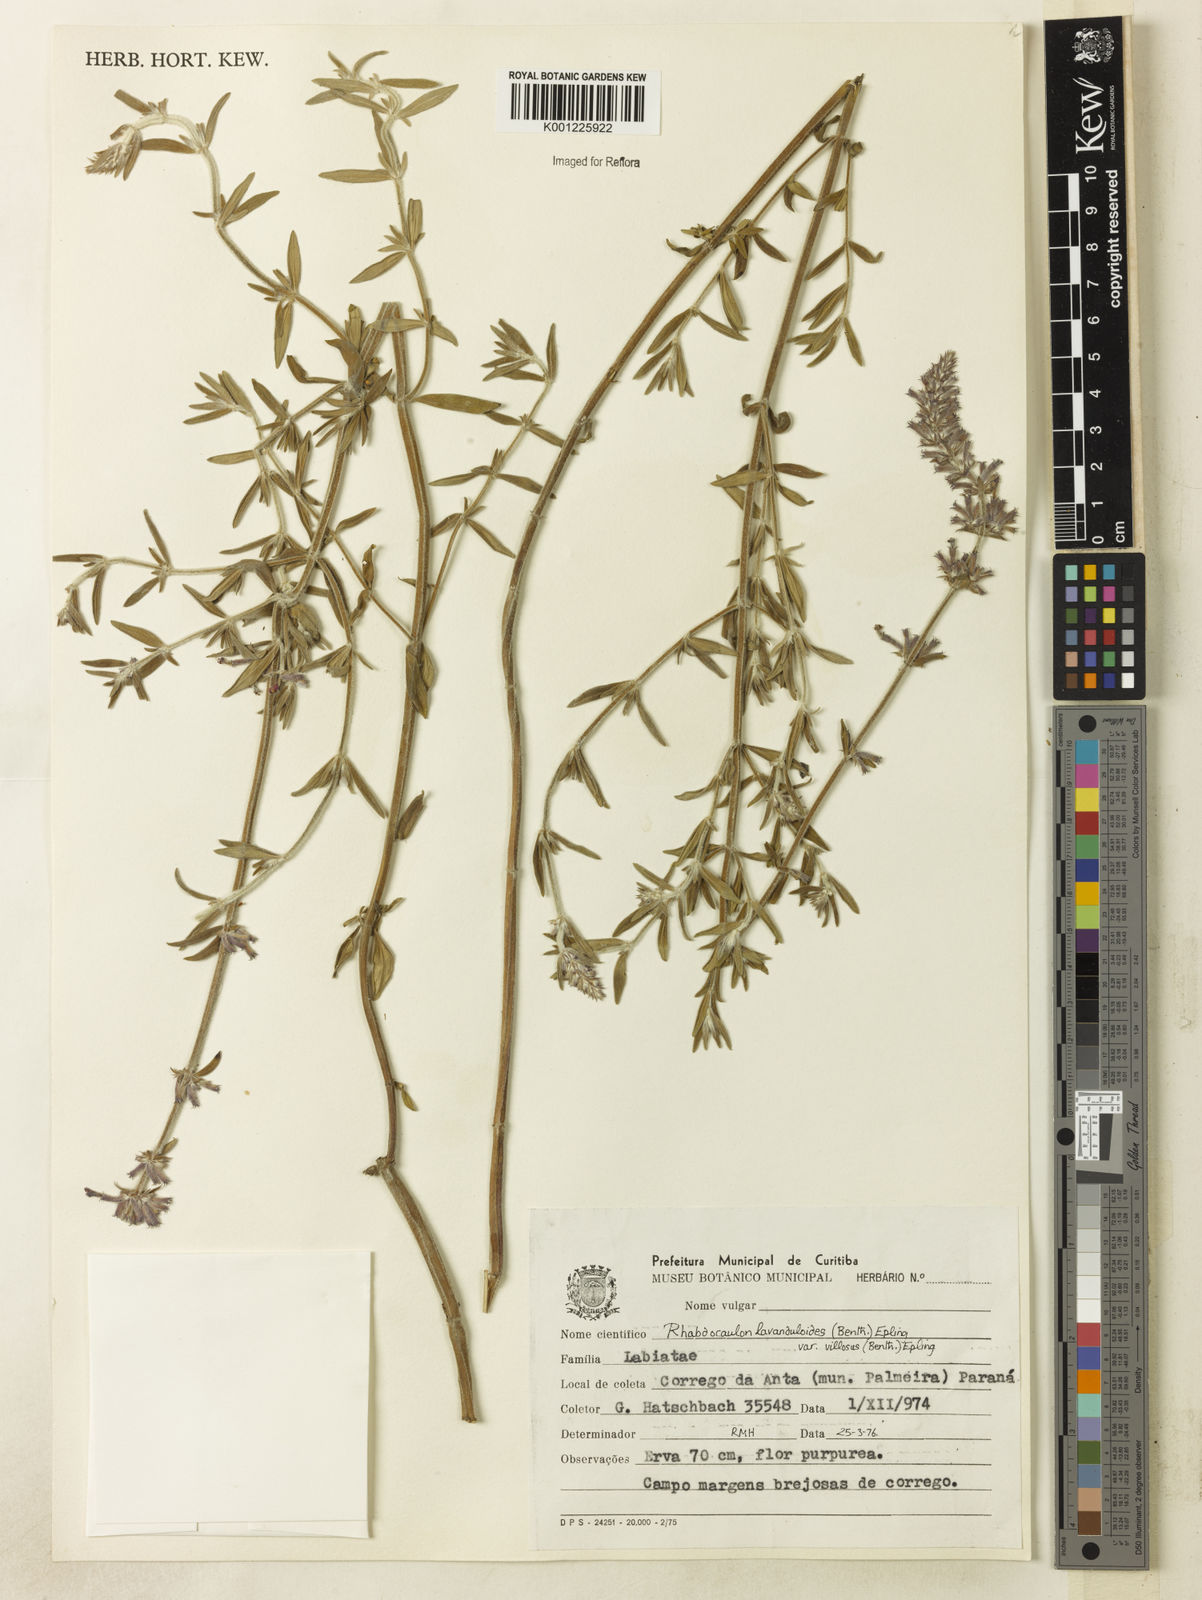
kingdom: Plantae
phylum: Tracheophyta
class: Magnoliopsida
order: Lamiales
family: Lamiaceae
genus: Rhabdocaulon
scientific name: Rhabdocaulon lavanduloides
